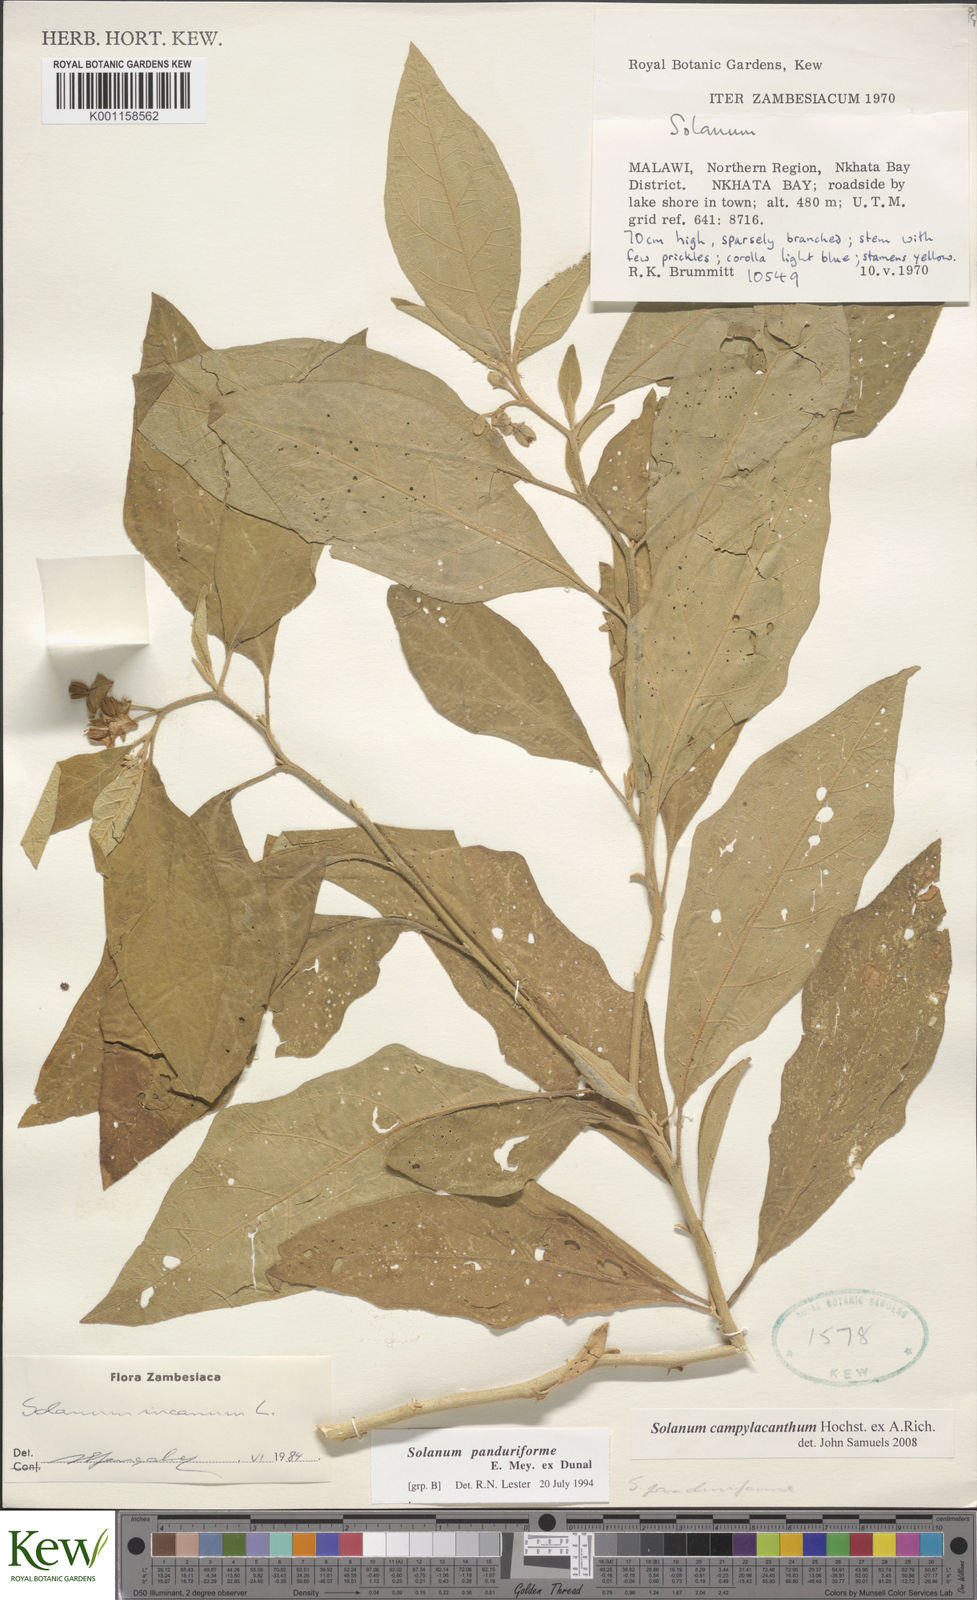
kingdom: Plantae
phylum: Tracheophyta
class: Magnoliopsida
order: Solanales
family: Solanaceae
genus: Solanum
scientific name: Solanum campylacanthum
